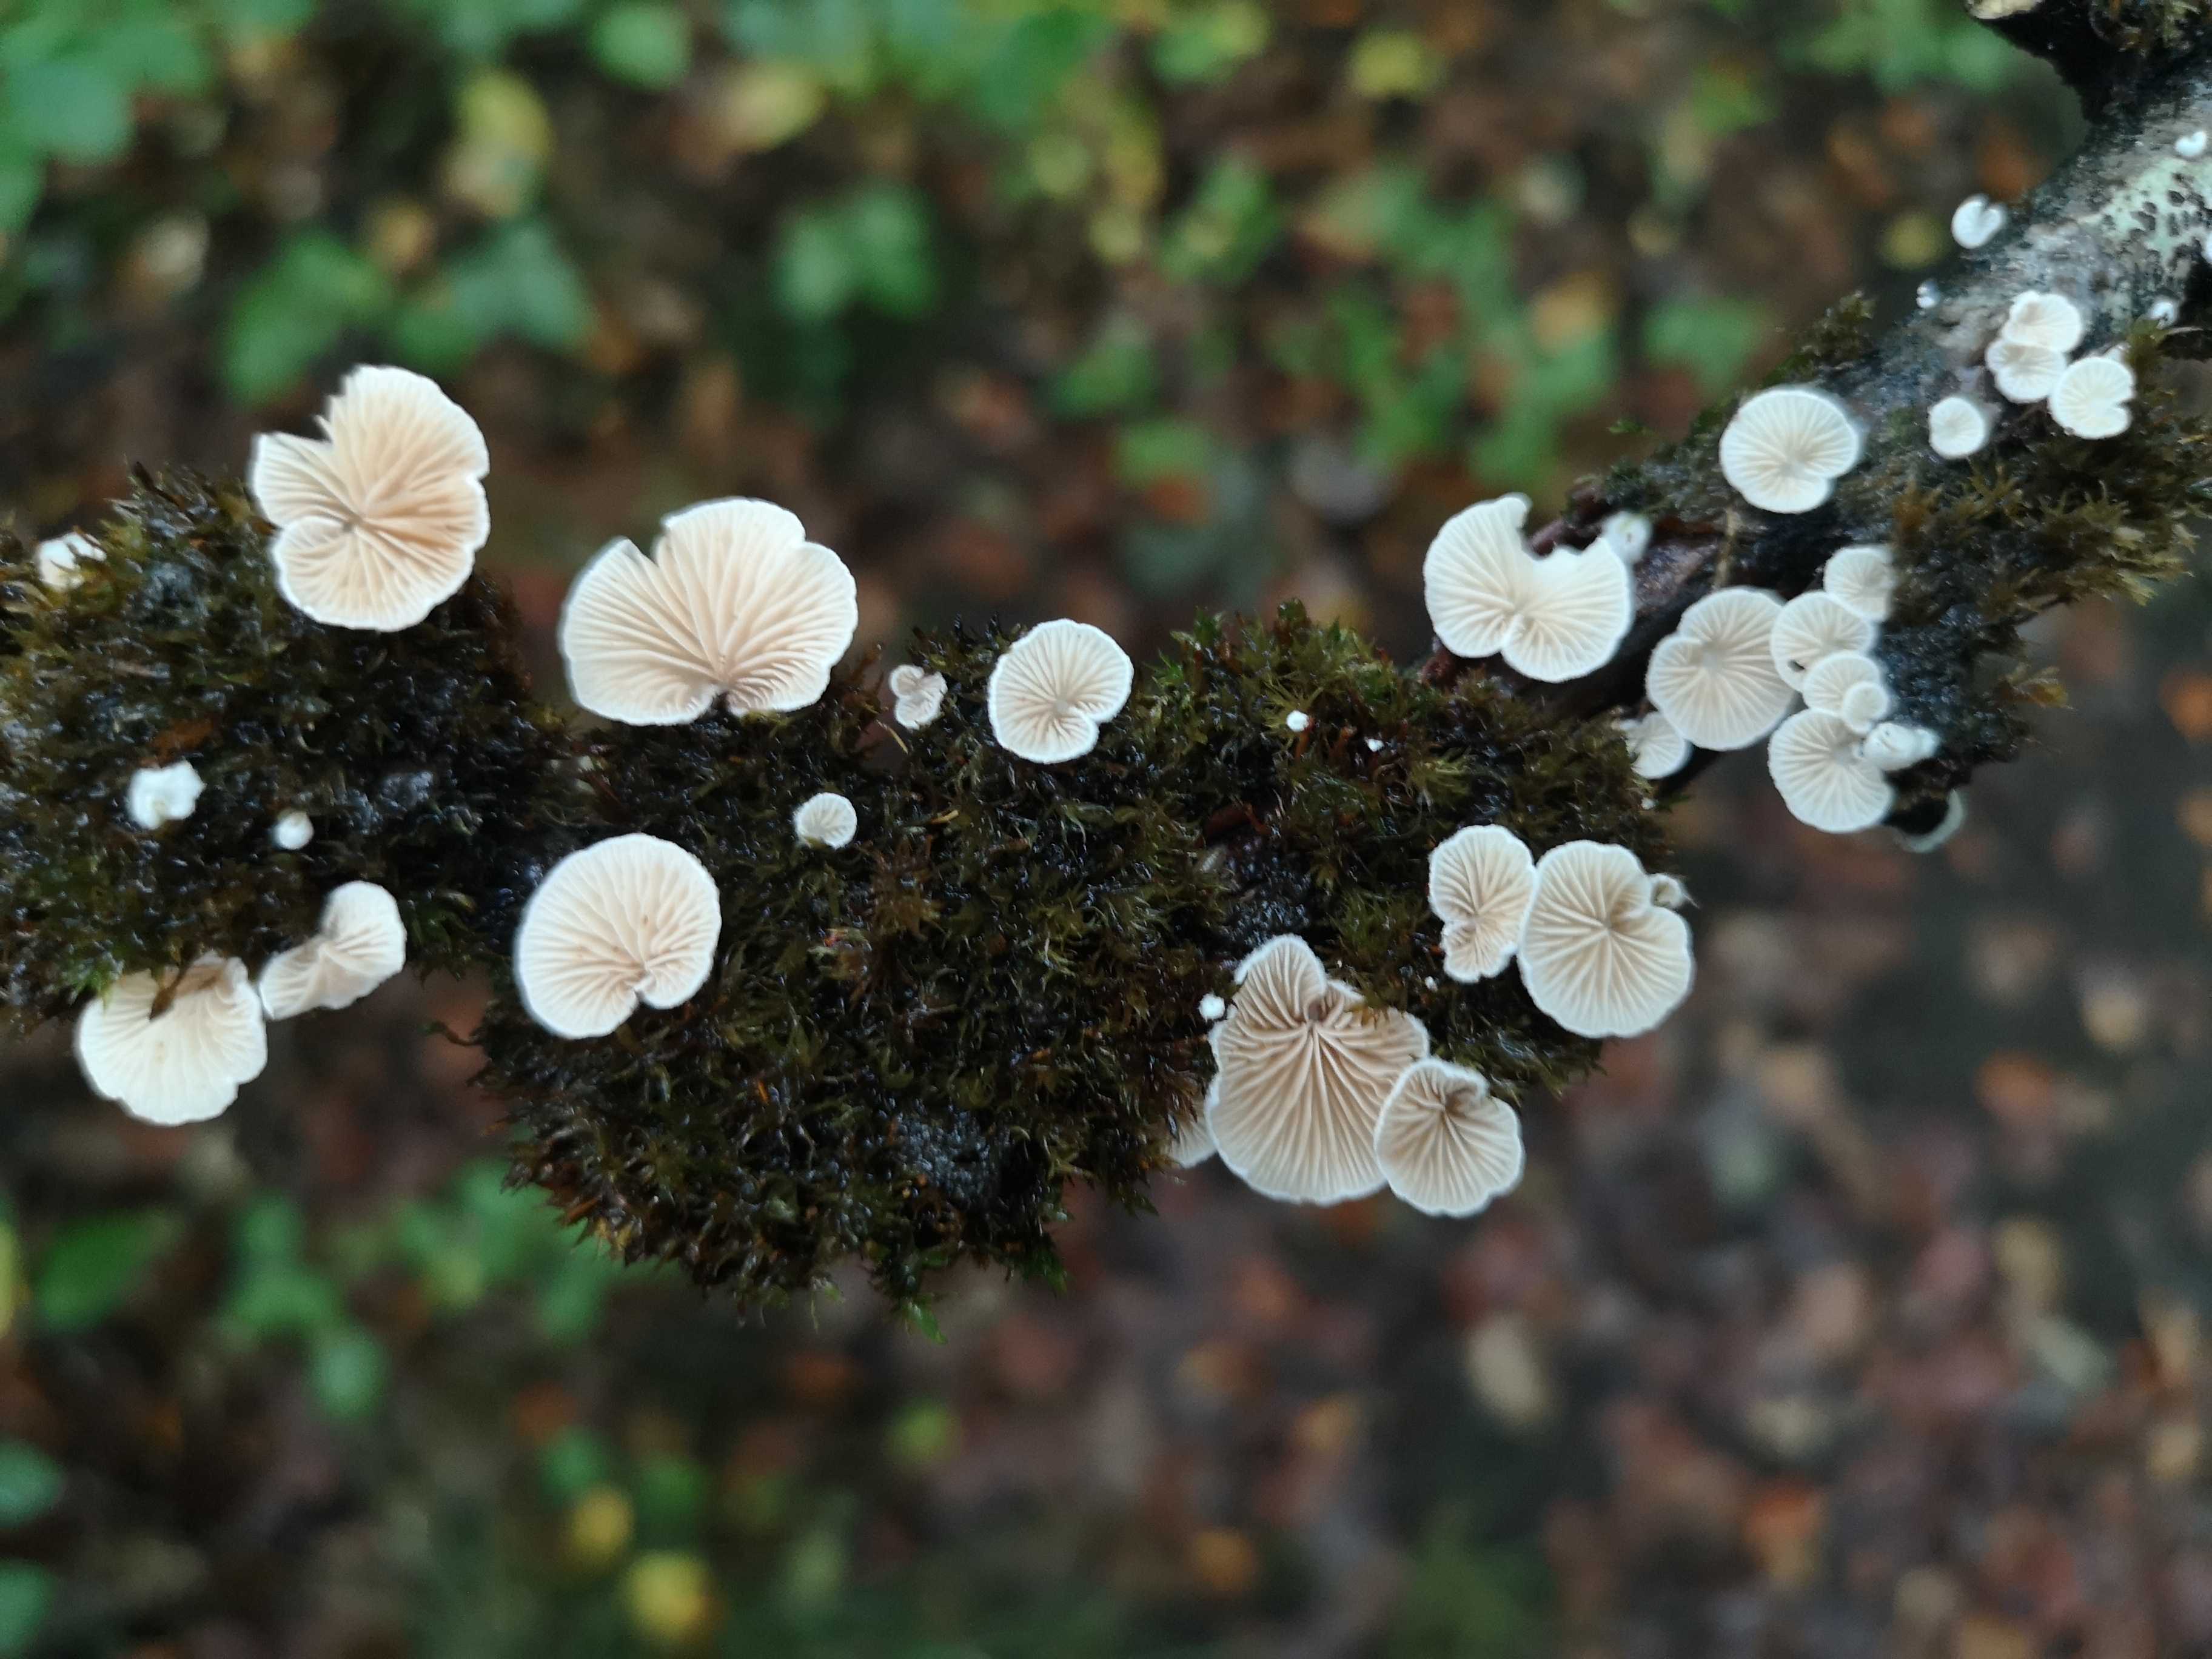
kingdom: Fungi
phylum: Basidiomycota
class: Agaricomycetes
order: Agaricales
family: Crepidotaceae
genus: Crepidotus
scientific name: Crepidotus
